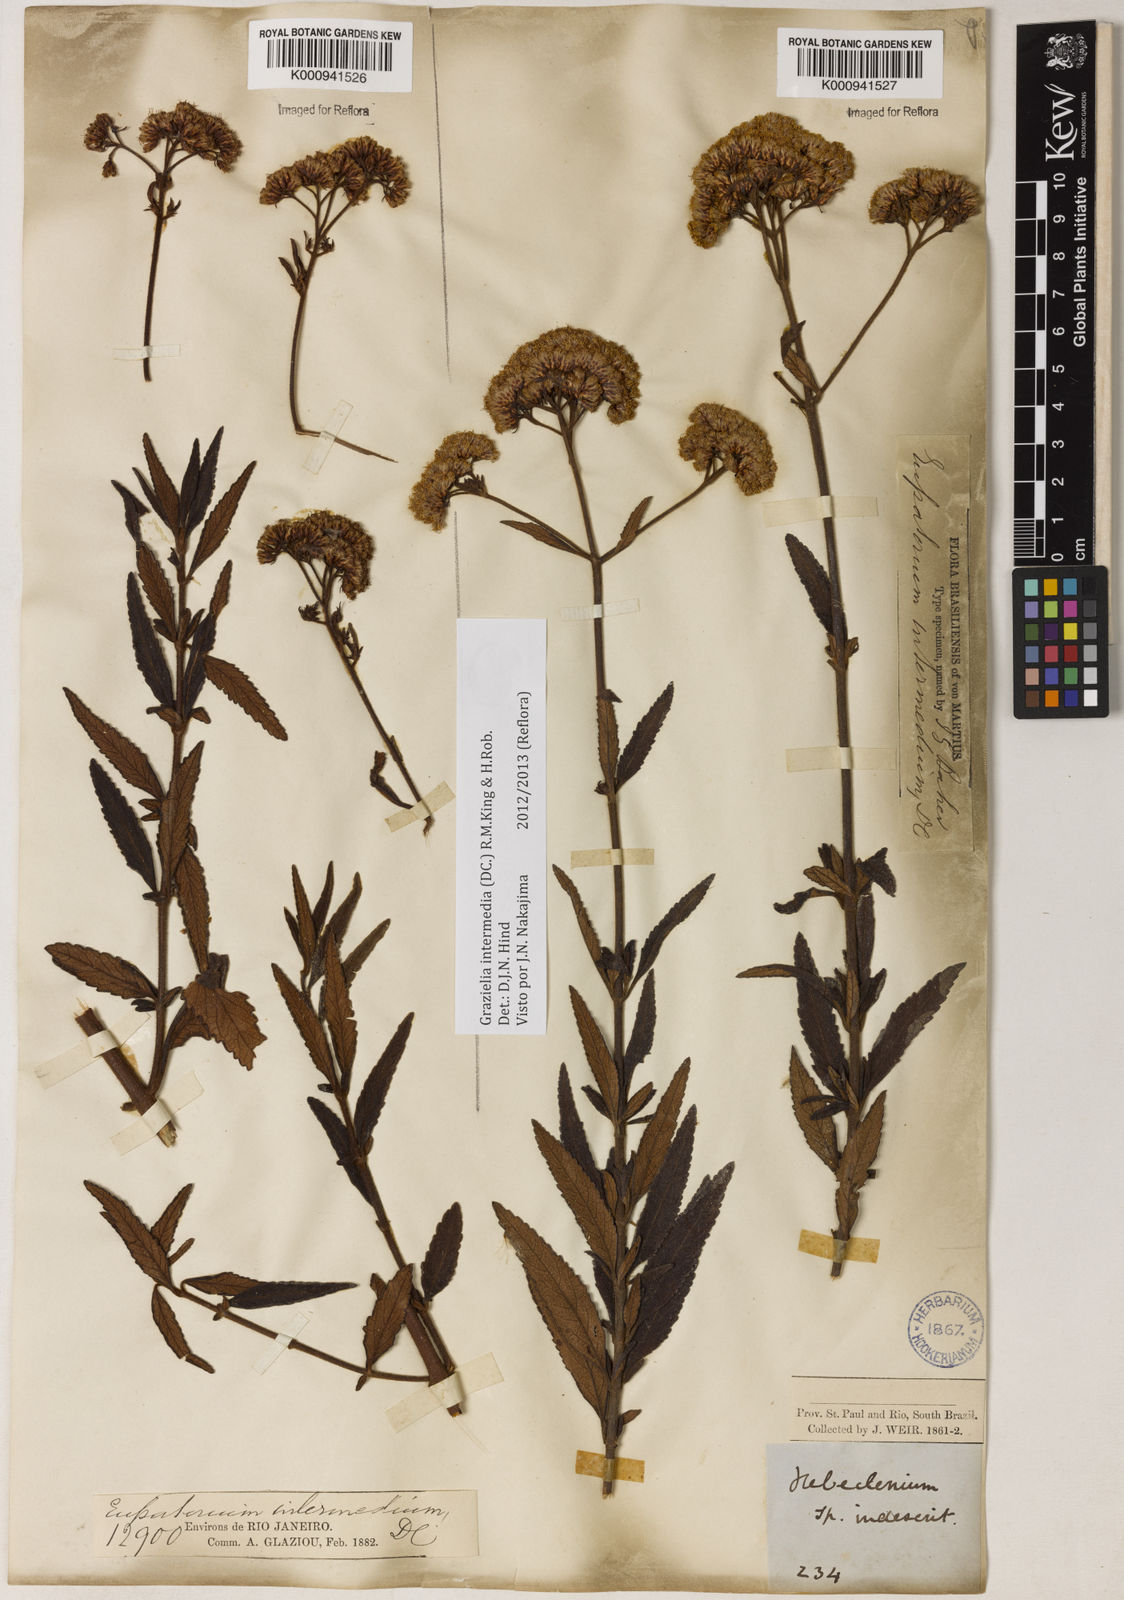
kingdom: Plantae
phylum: Tracheophyta
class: Magnoliopsida
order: Asterales
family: Asteraceae
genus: Grazielia
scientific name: Grazielia intermedia
